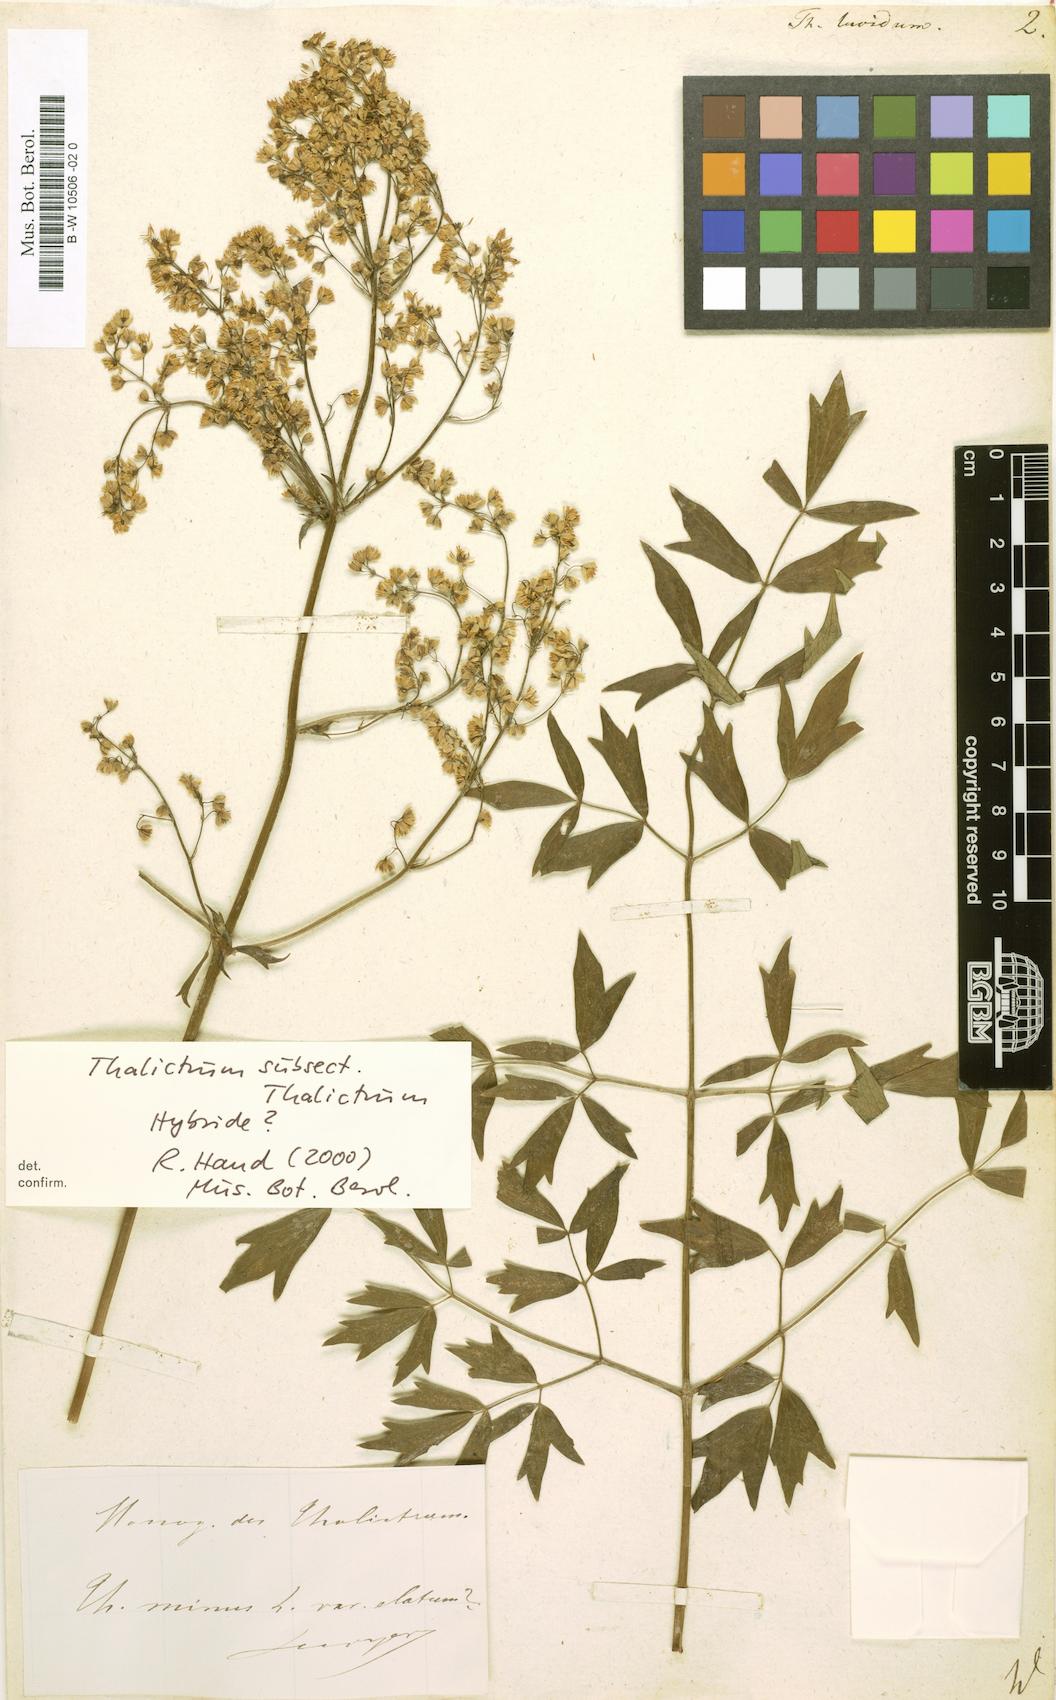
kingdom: Plantae
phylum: Tracheophyta
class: Magnoliopsida
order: Ranunculales
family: Ranunculaceae
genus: Thalictrum
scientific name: Thalictrum lucidum
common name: Shining meadow-rue
